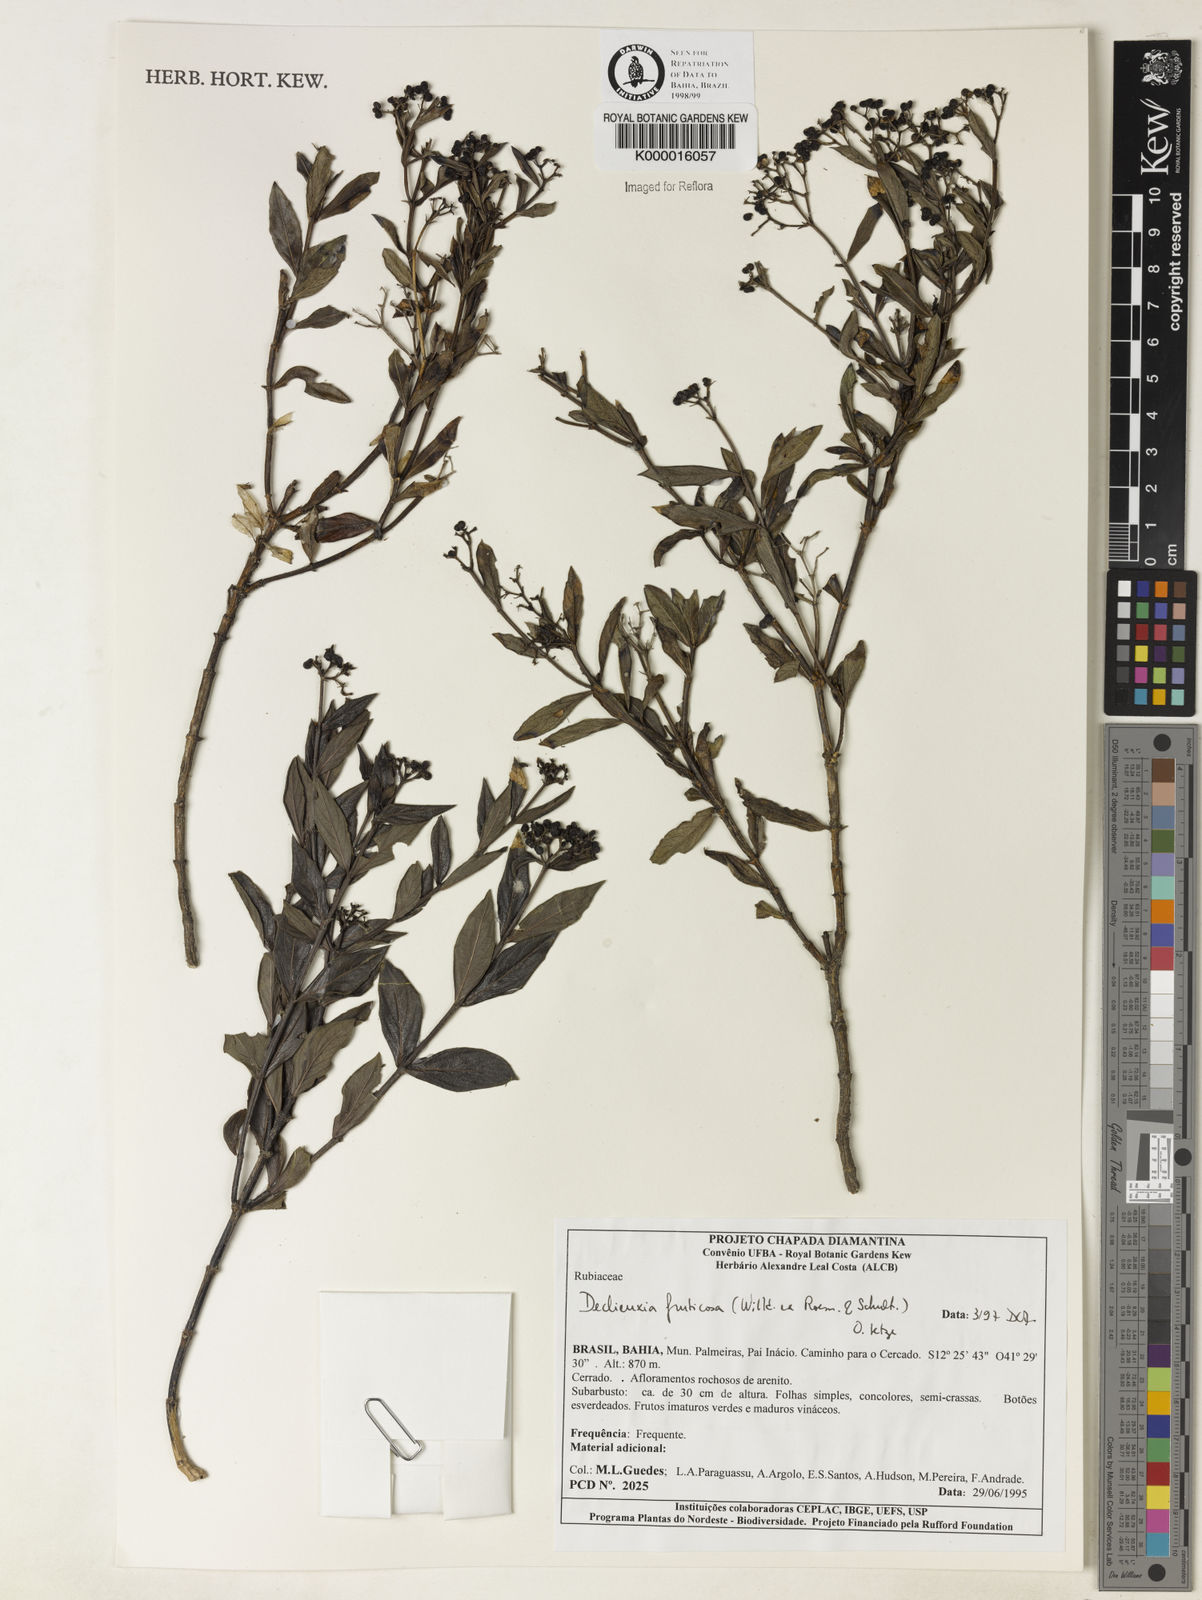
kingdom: Plantae
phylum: Tracheophyta
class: Magnoliopsida
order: Gentianales
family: Rubiaceae
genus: Declieuxia
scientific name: Declieuxia fruticosa
